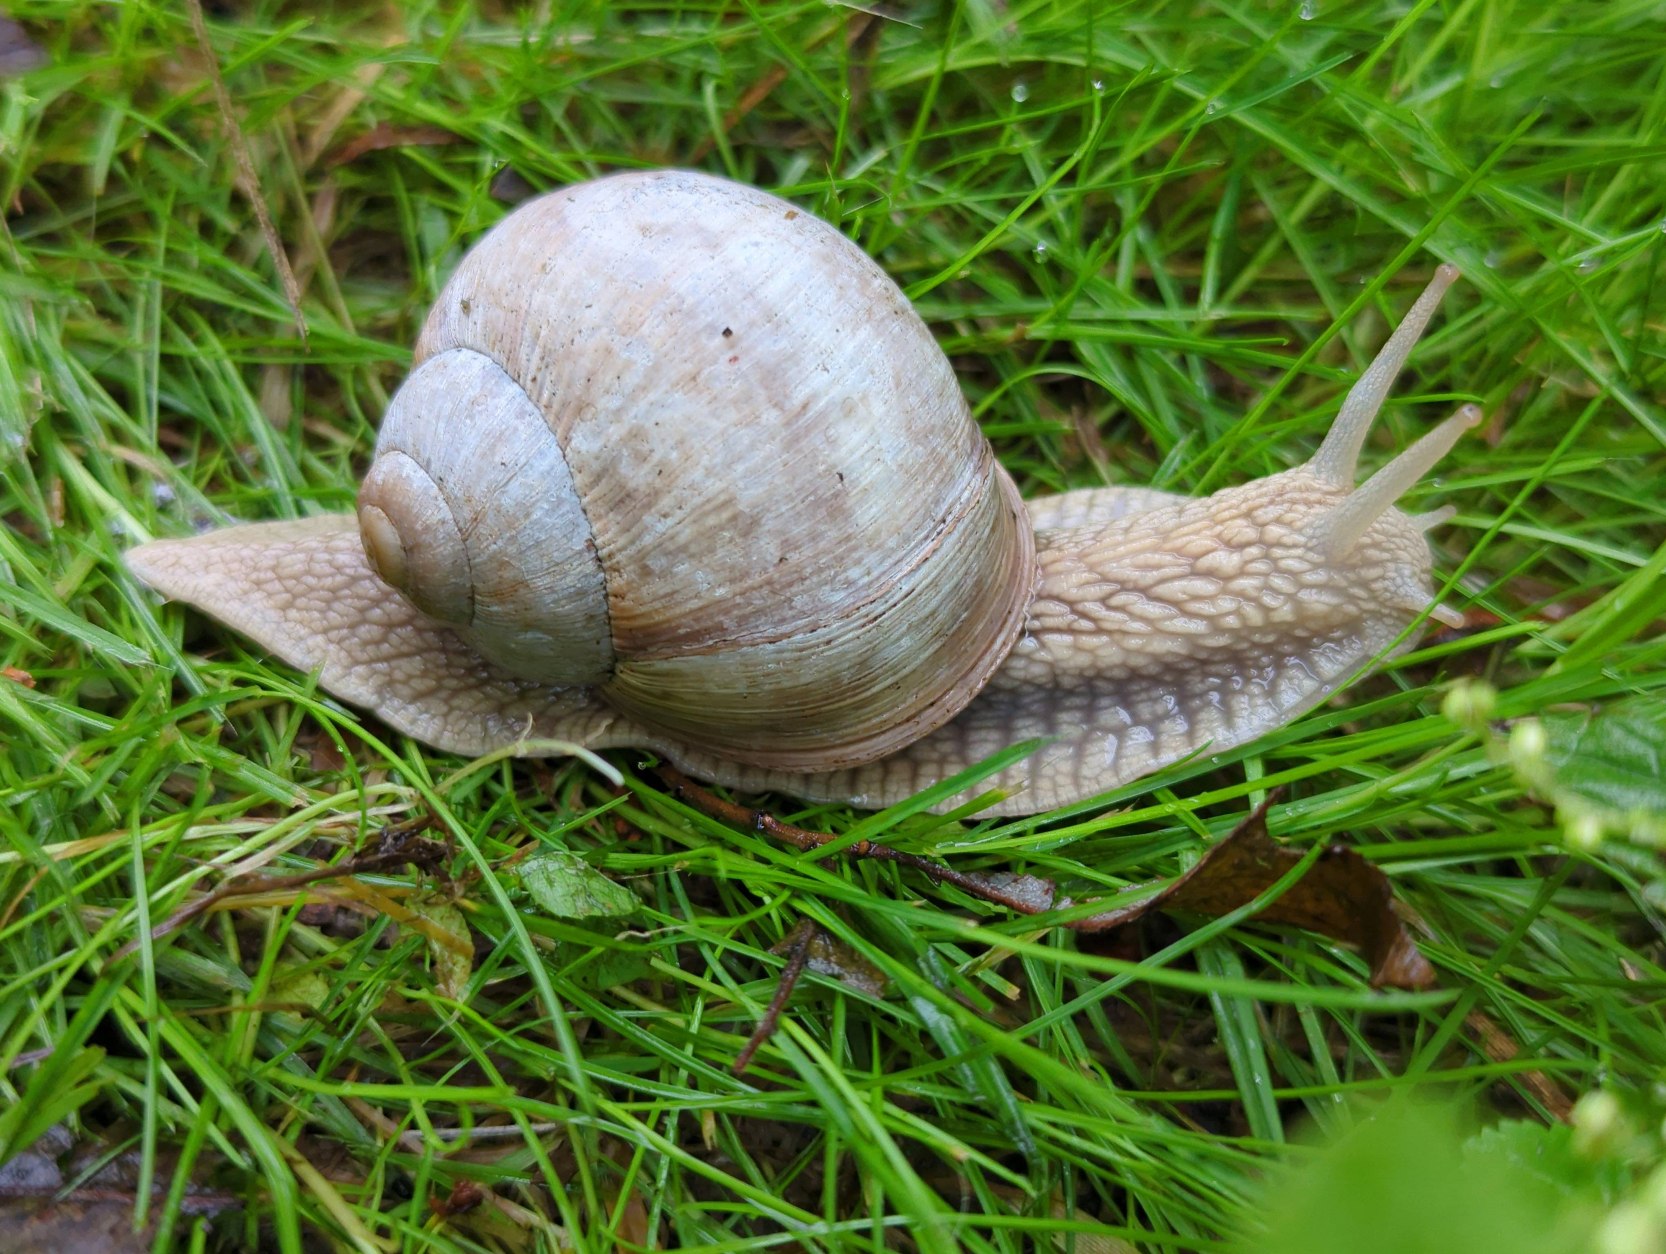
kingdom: Animalia
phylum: Mollusca
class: Gastropoda
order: Stylommatophora
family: Helicidae
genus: Helix
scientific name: Helix pomatia
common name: Vinbjergsnegl
